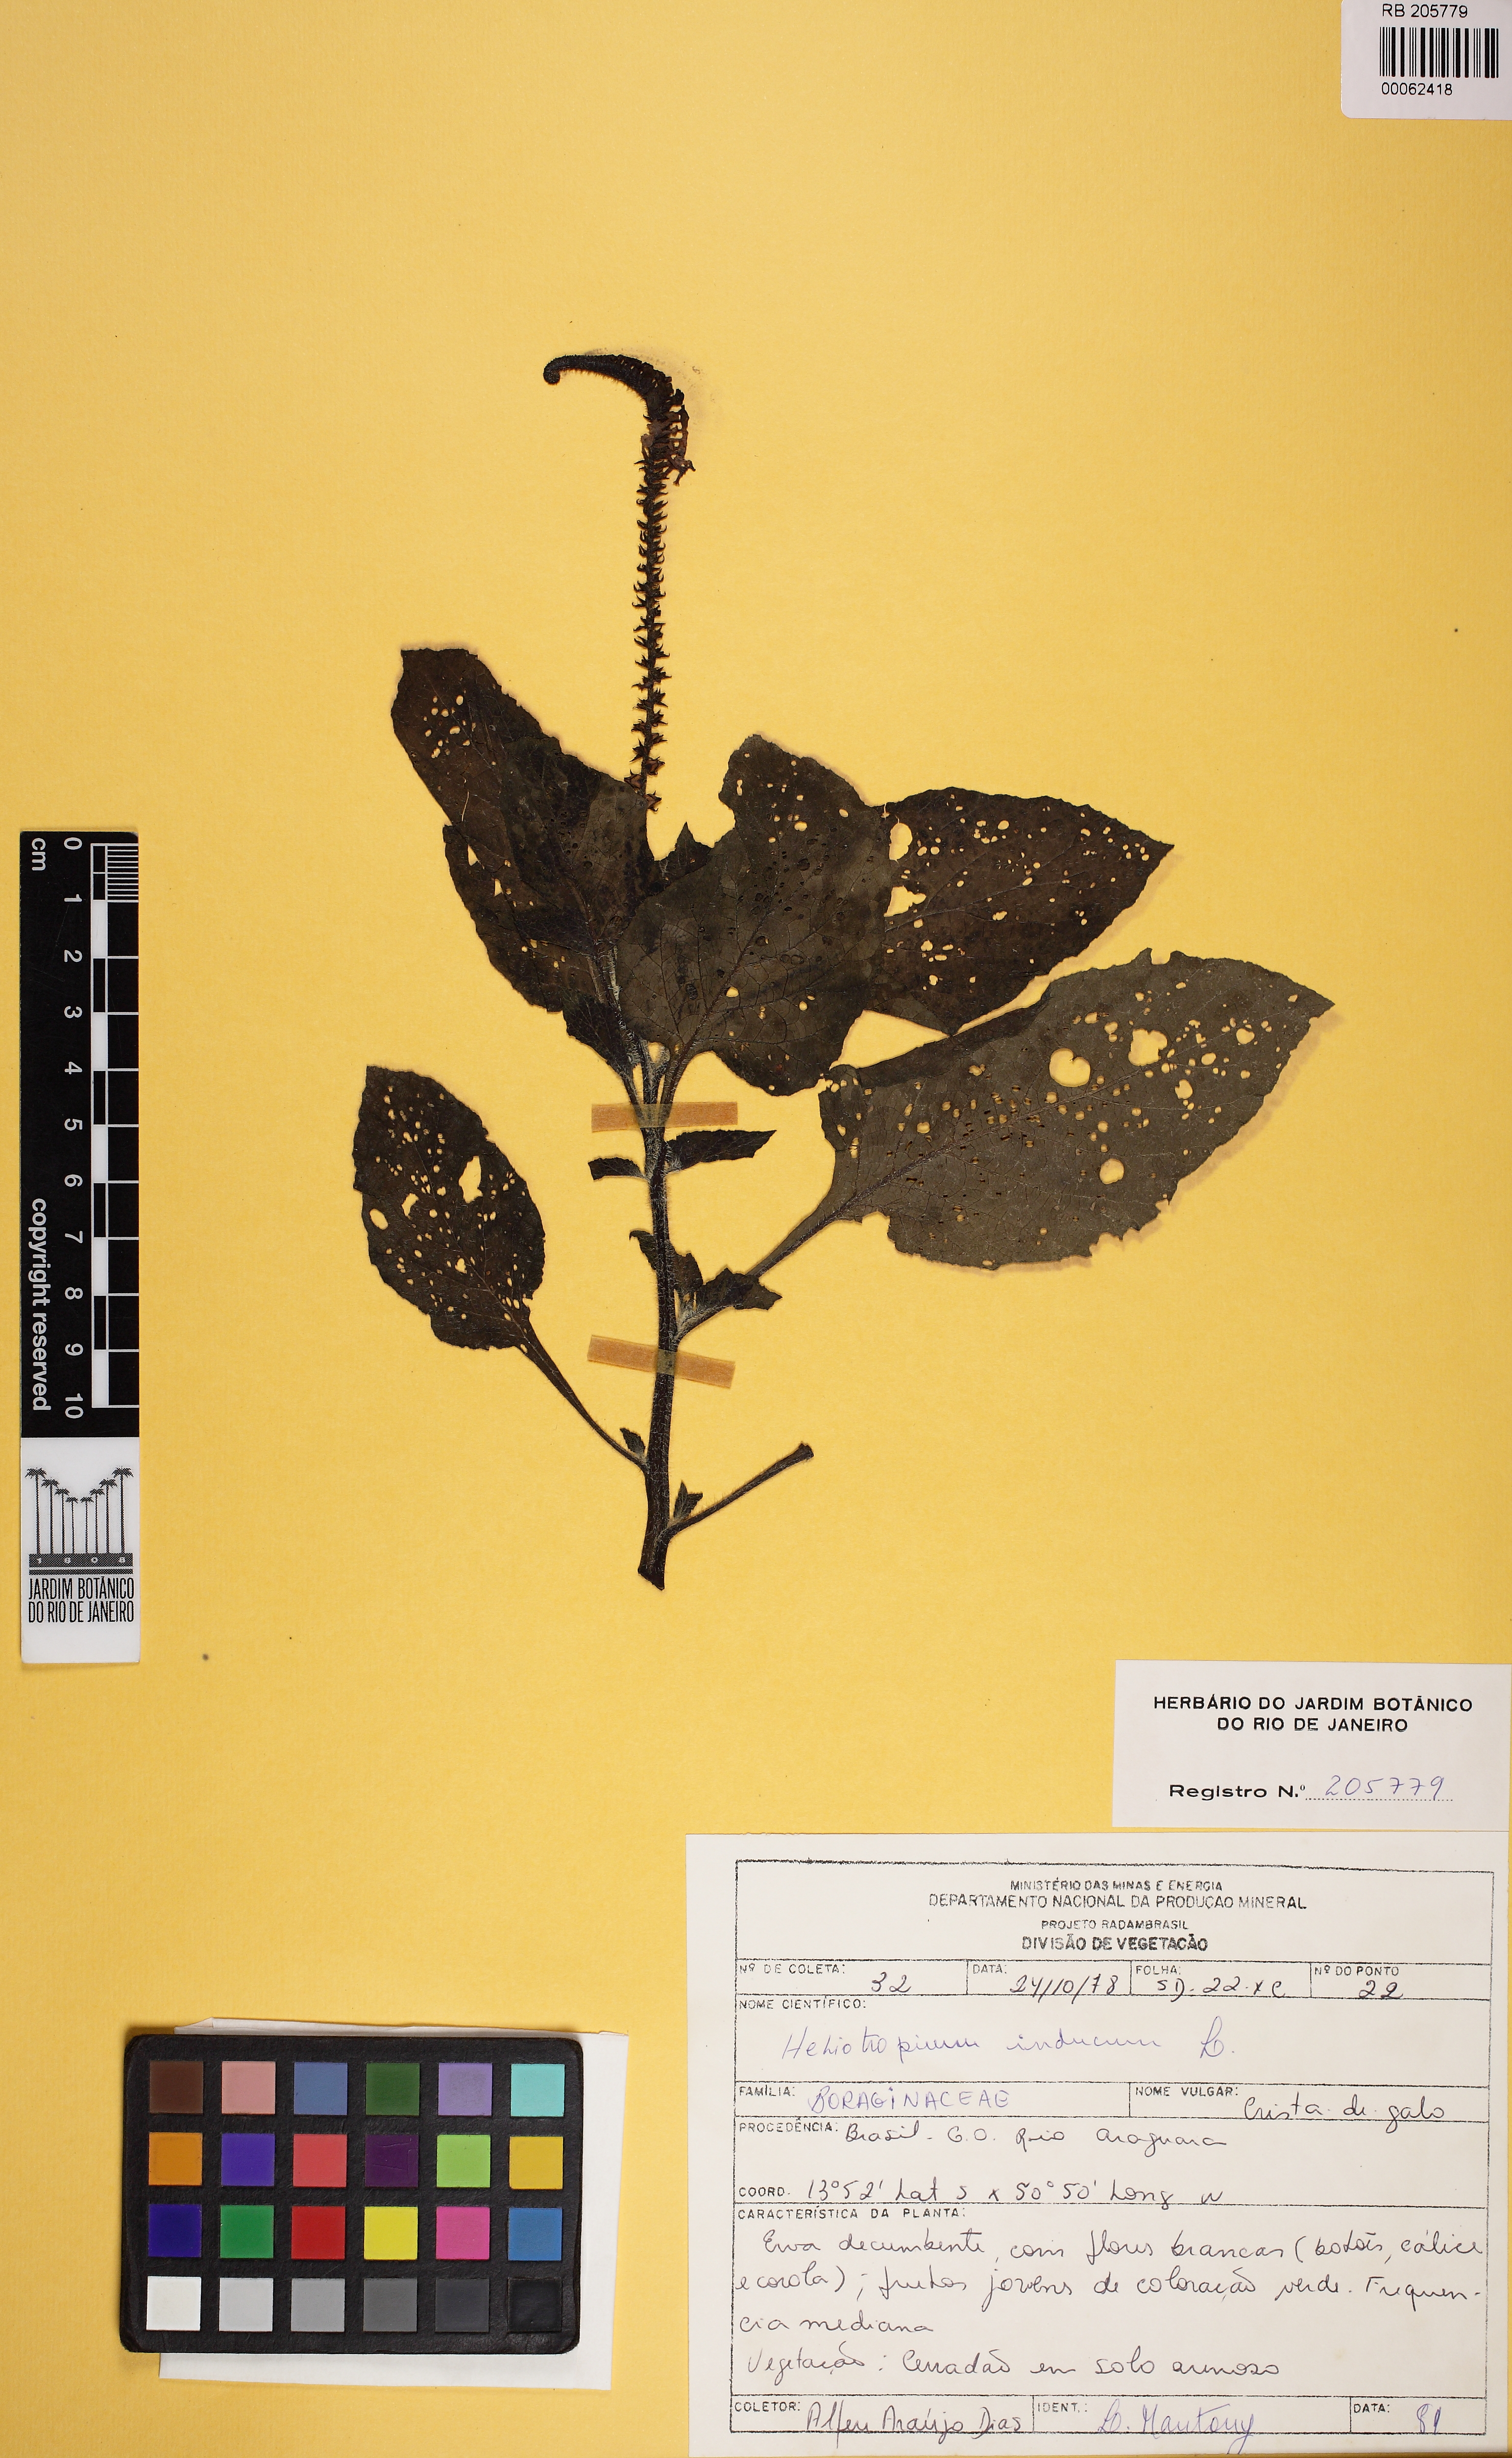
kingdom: Plantae
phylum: Tracheophyta
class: Magnoliopsida
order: Boraginales
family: Heliotropiaceae
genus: Heliotropium
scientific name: Heliotropium indicum
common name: Indian heliotrope
